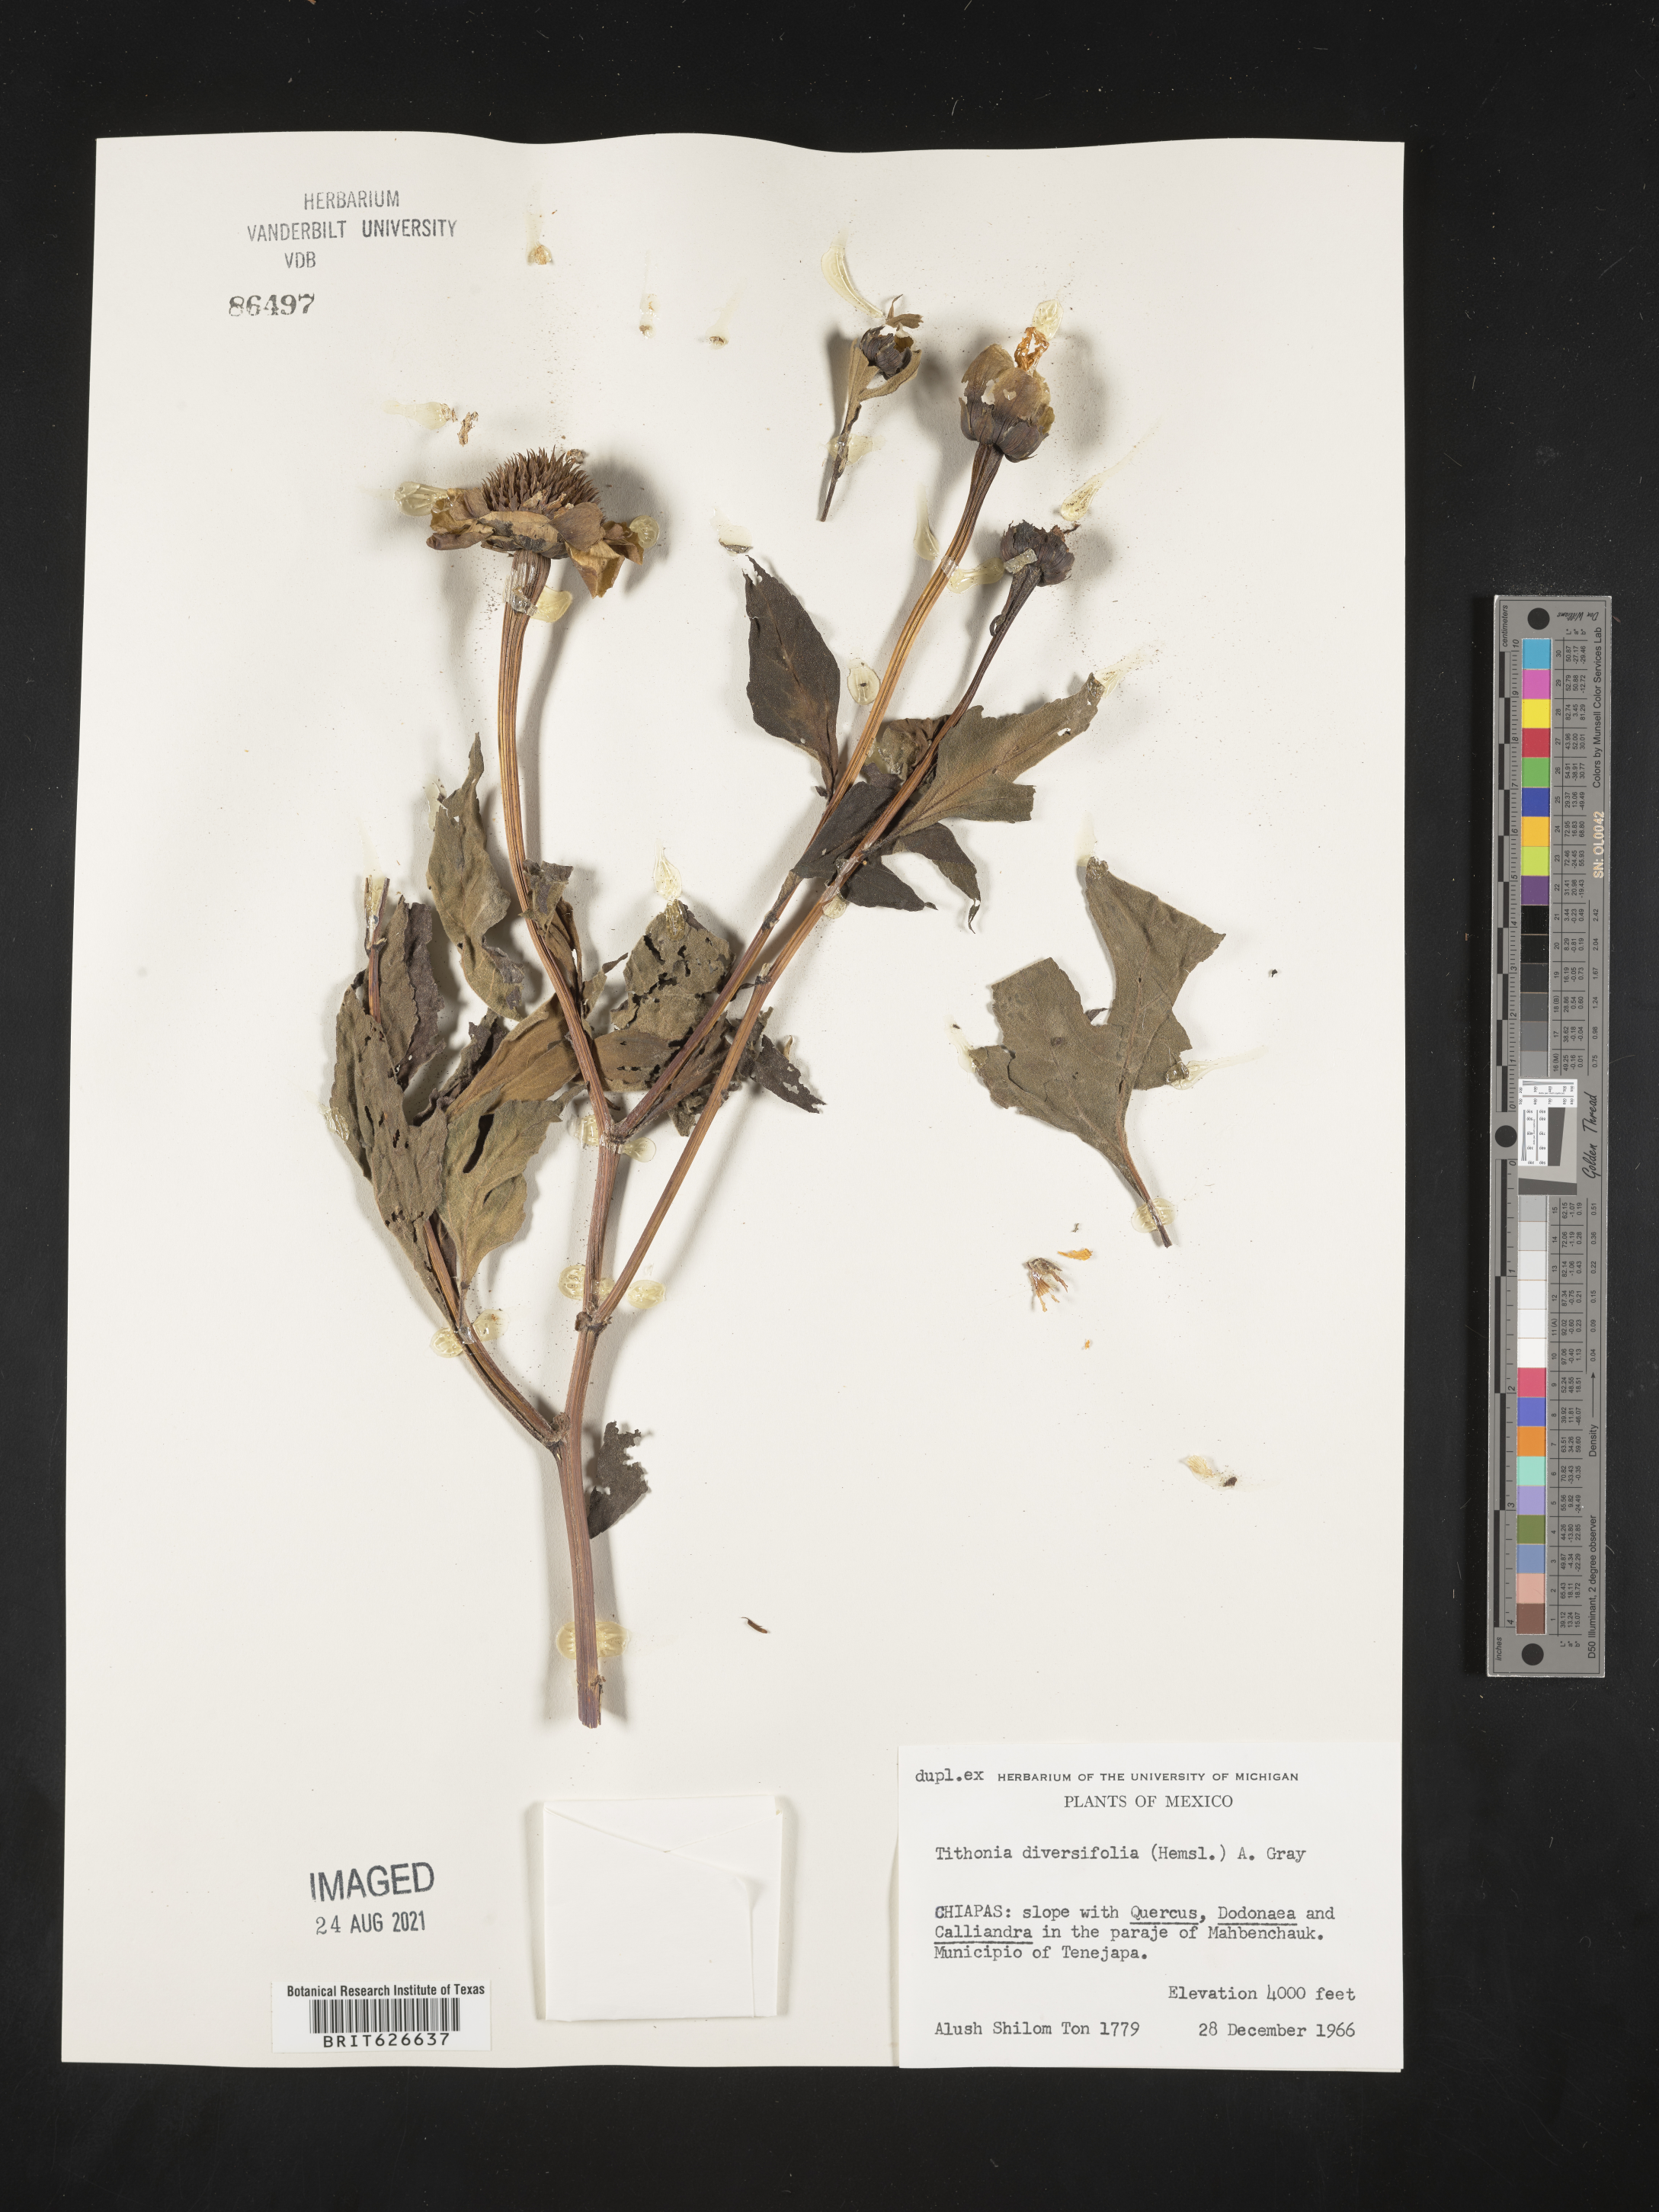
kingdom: Plantae
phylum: Tracheophyta
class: Magnoliopsida
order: Asterales
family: Asteraceae
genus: Tithonia
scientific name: Tithonia
